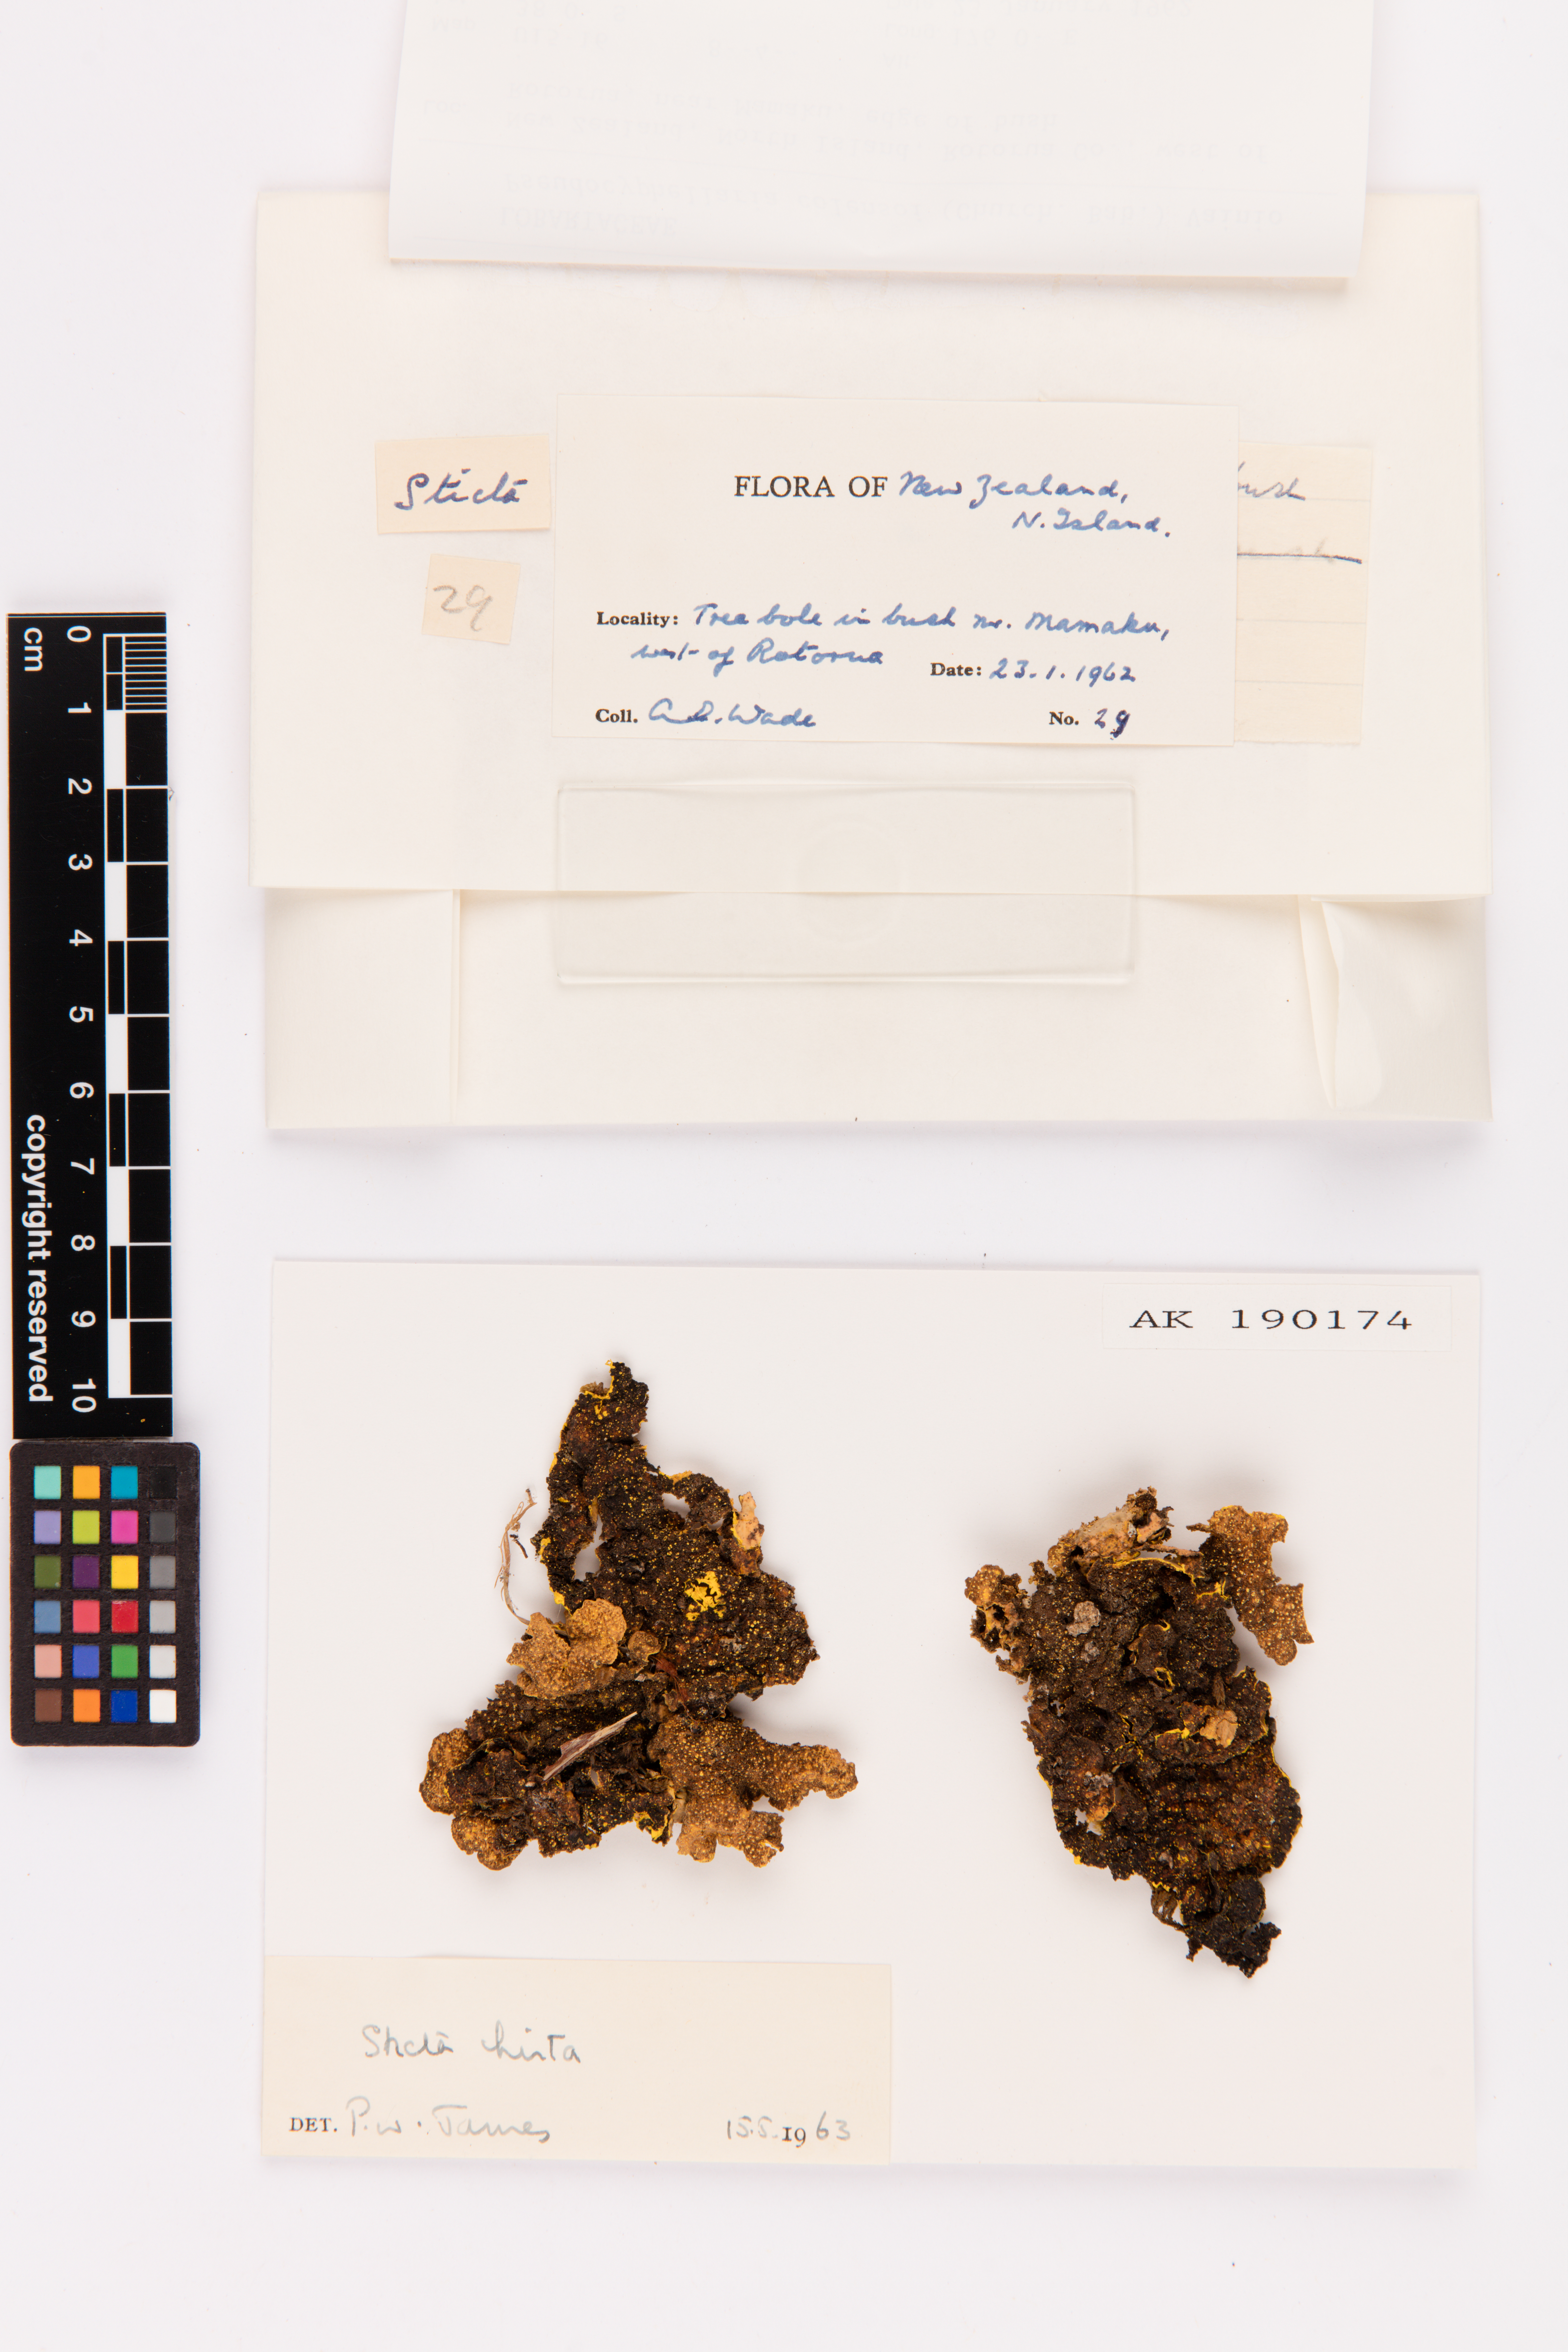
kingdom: Fungi
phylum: Ascomycota
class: Lecanoromycetes
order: Peltigerales
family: Lobariaceae
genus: Yarrumia
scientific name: Yarrumia colensoi
